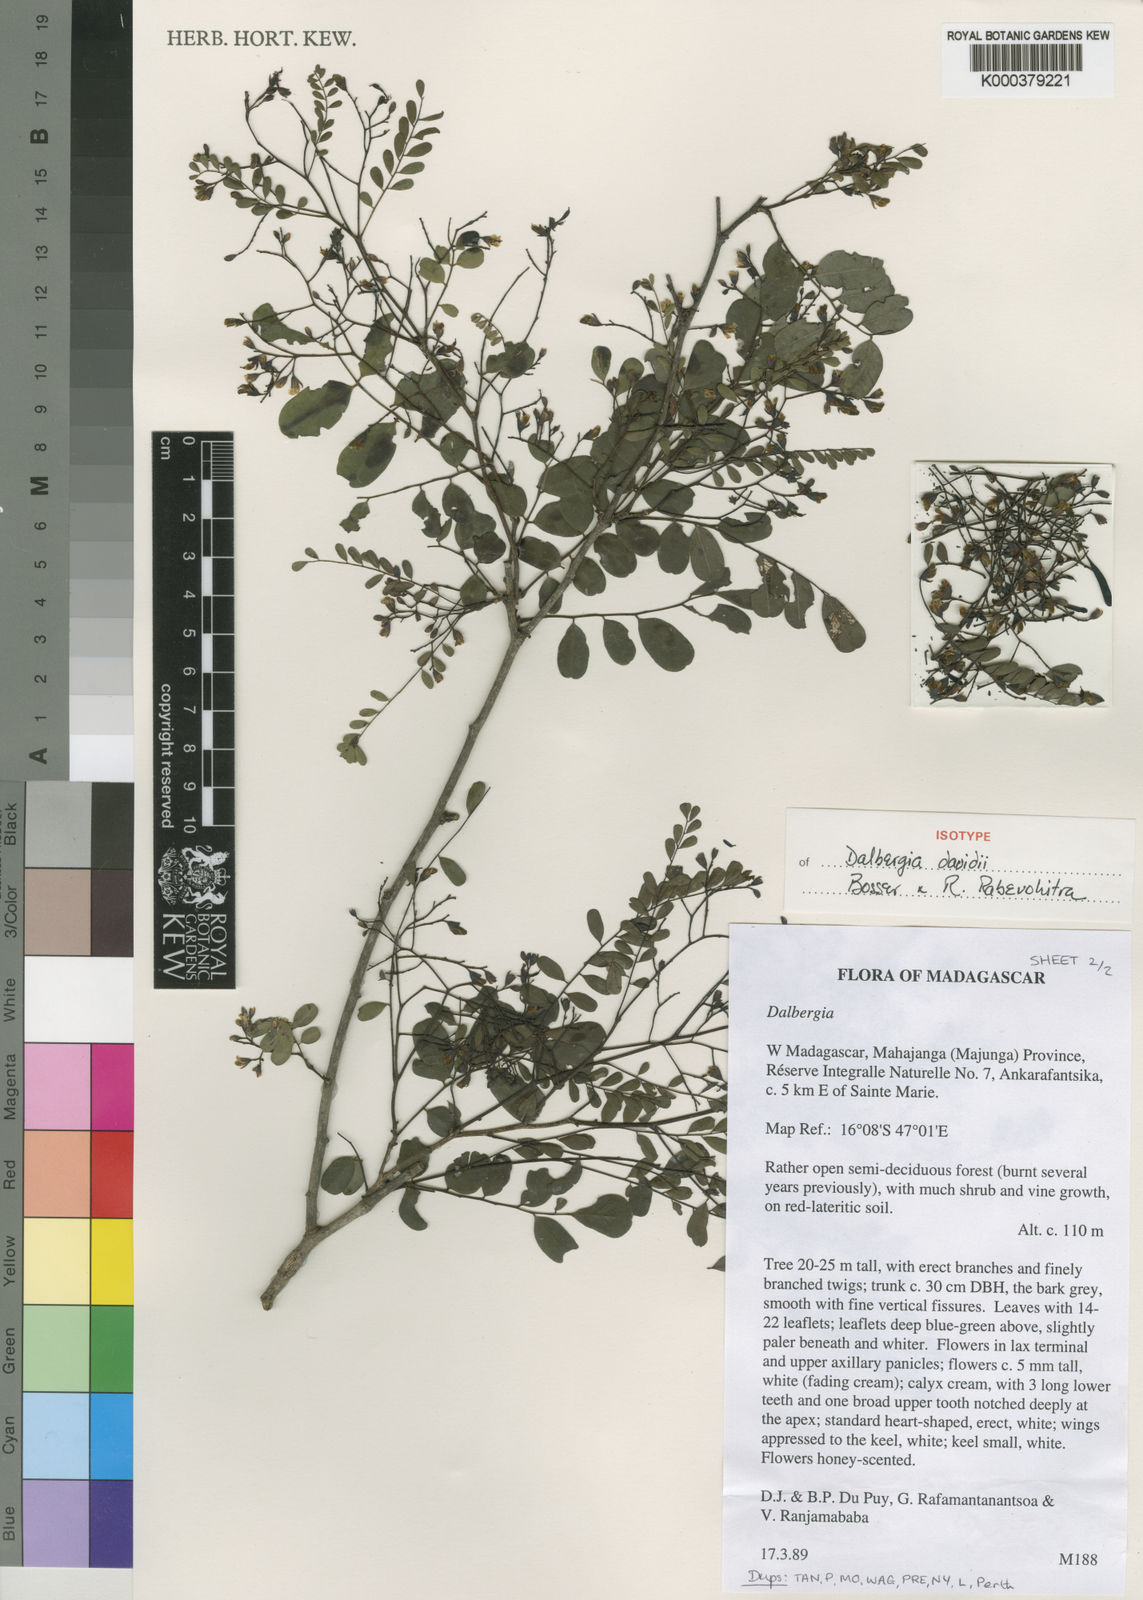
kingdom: Plantae
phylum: Tracheophyta
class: Magnoliopsida
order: Fabales
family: Fabaceae
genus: Dalbergia
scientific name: Dalbergia davidii
